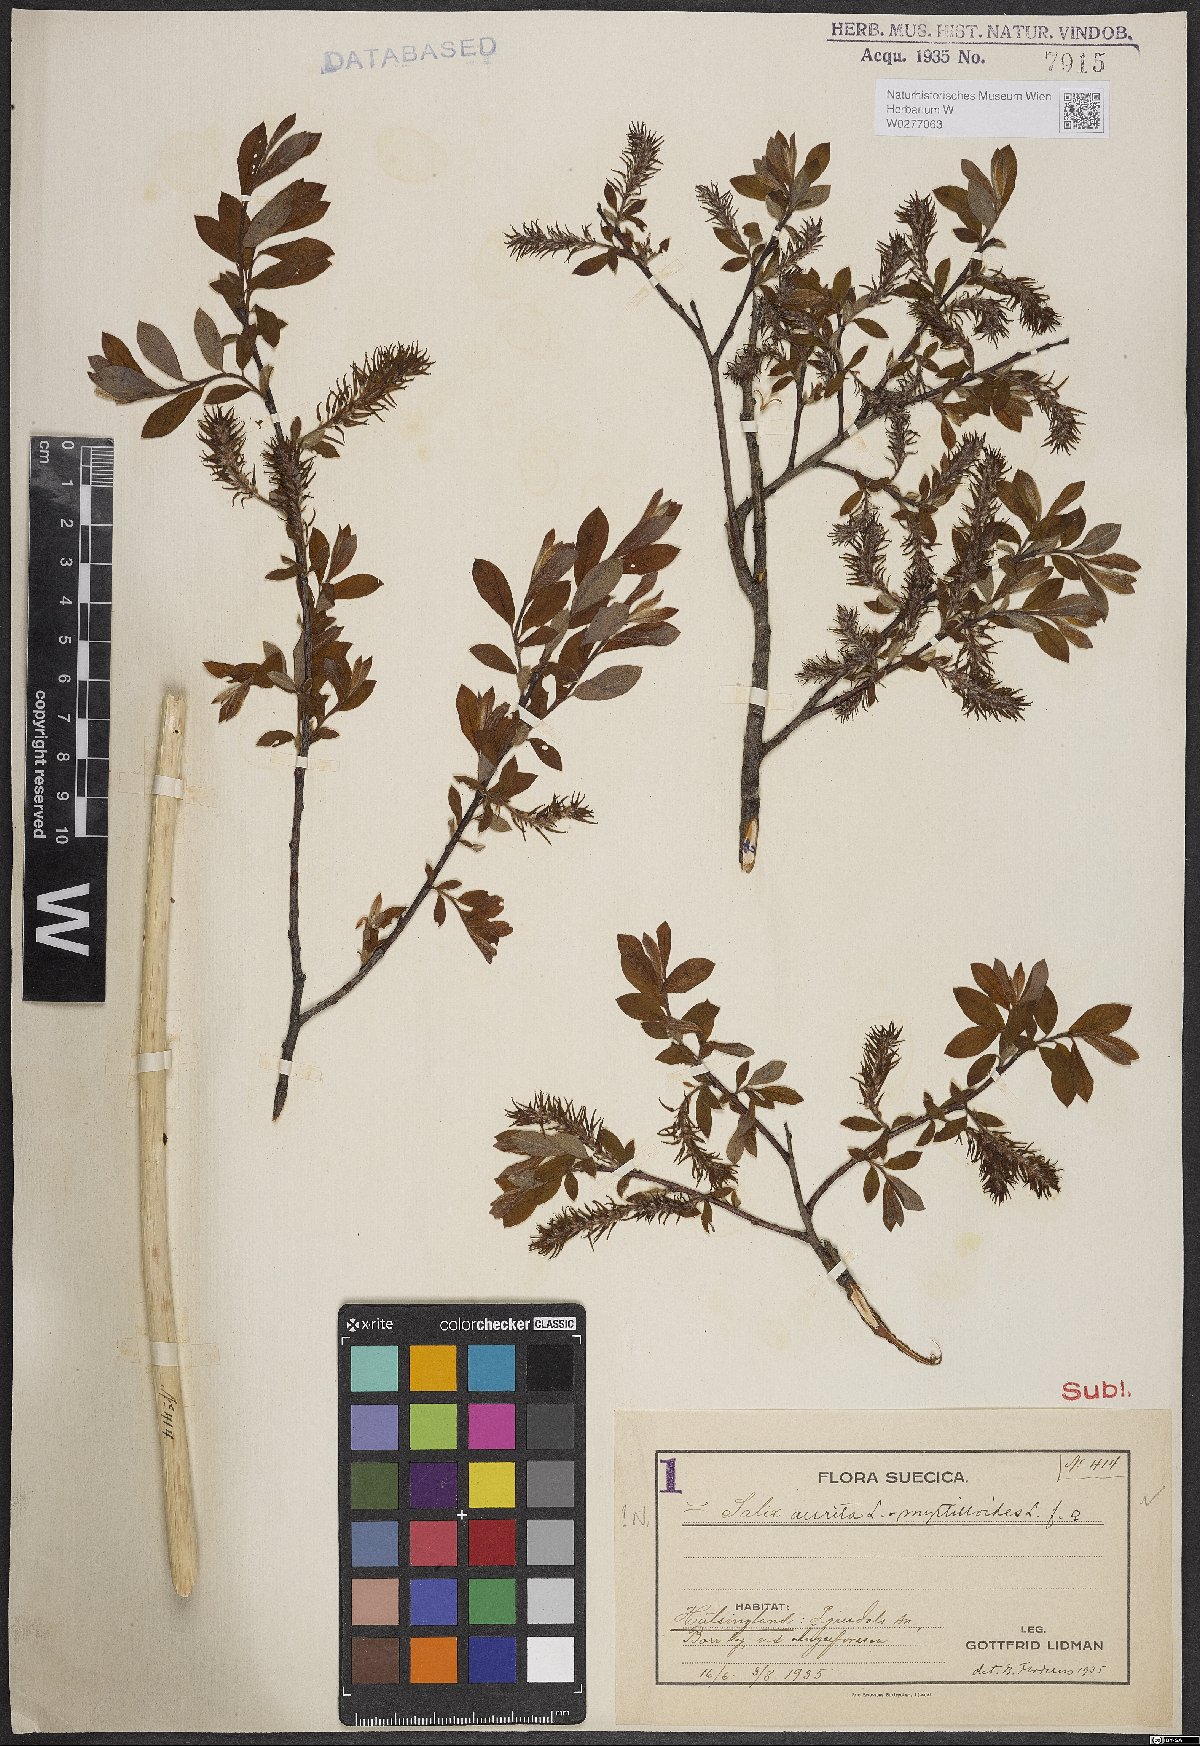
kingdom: Plantae
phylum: Tracheophyta
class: Magnoliopsida
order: Malpighiales
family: Salicaceae
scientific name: Salicaceae
